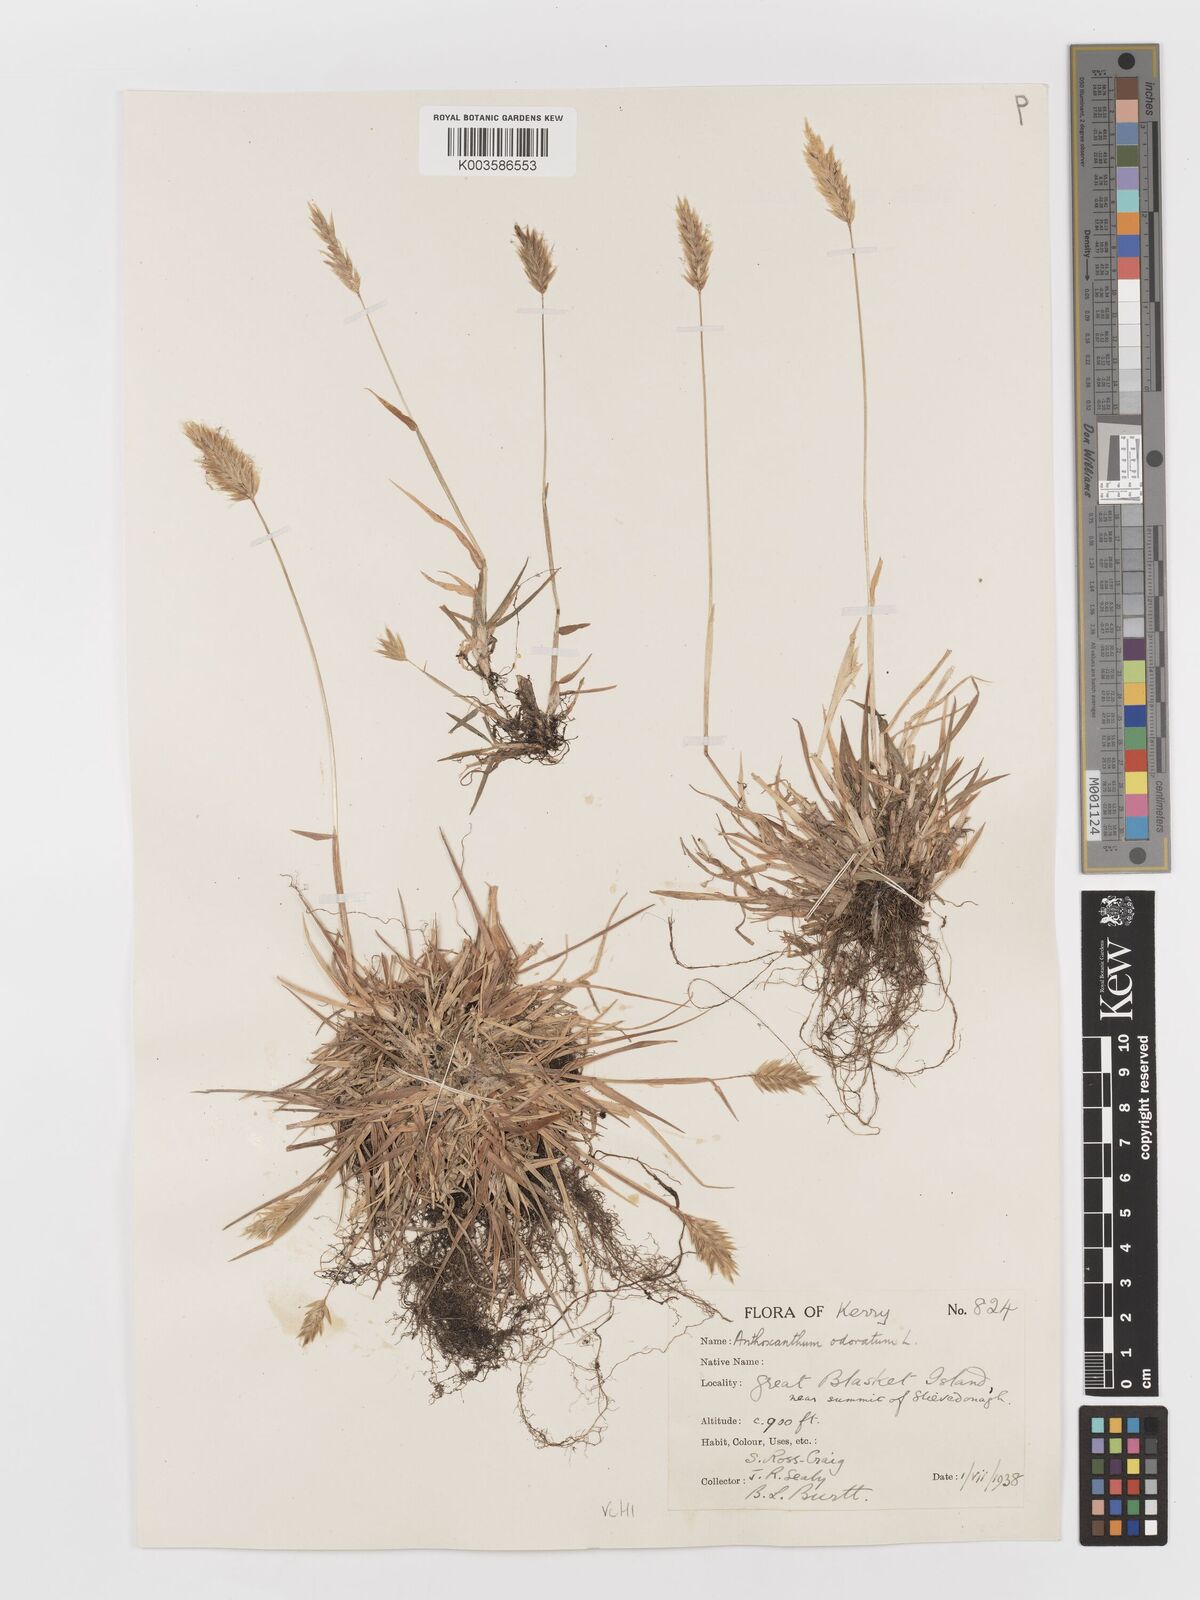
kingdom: Plantae
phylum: Tracheophyta
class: Liliopsida
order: Poales
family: Poaceae
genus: Anthoxanthum
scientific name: Anthoxanthum odoratum
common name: Sweet vernalgrass
